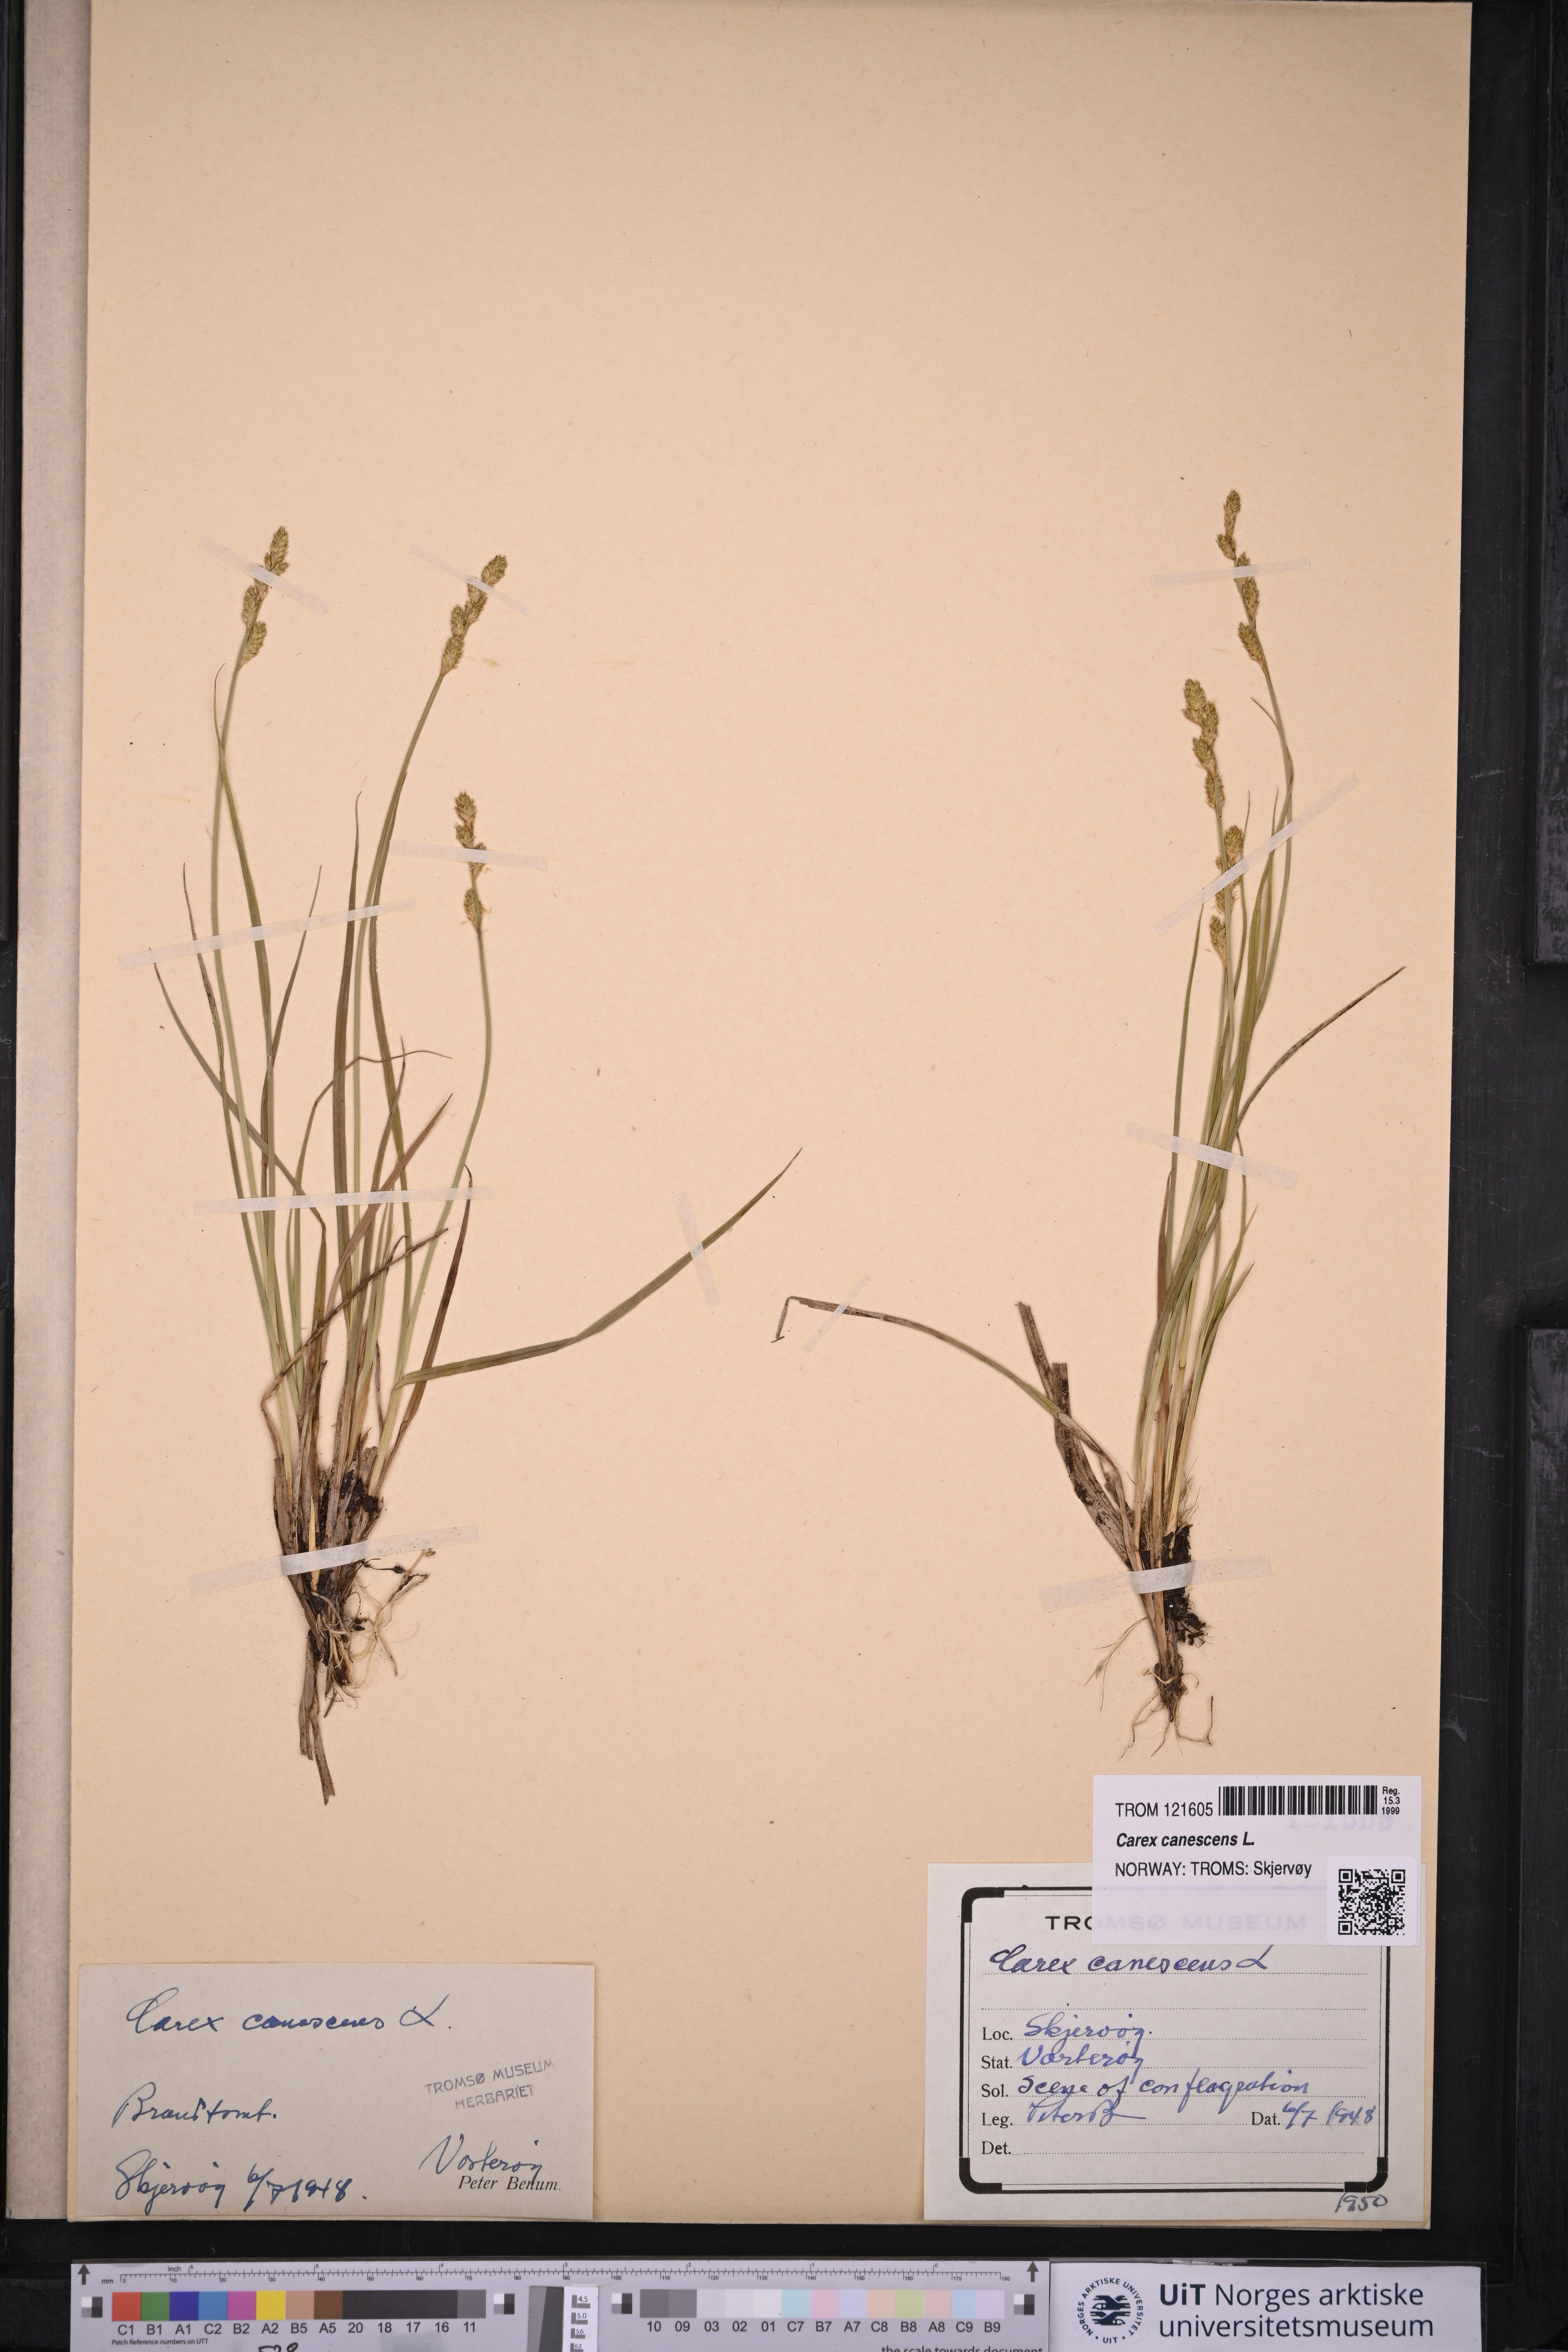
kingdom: Plantae
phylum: Tracheophyta
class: Liliopsida
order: Poales
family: Cyperaceae
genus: Carex
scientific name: Carex canescens
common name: White sedge
